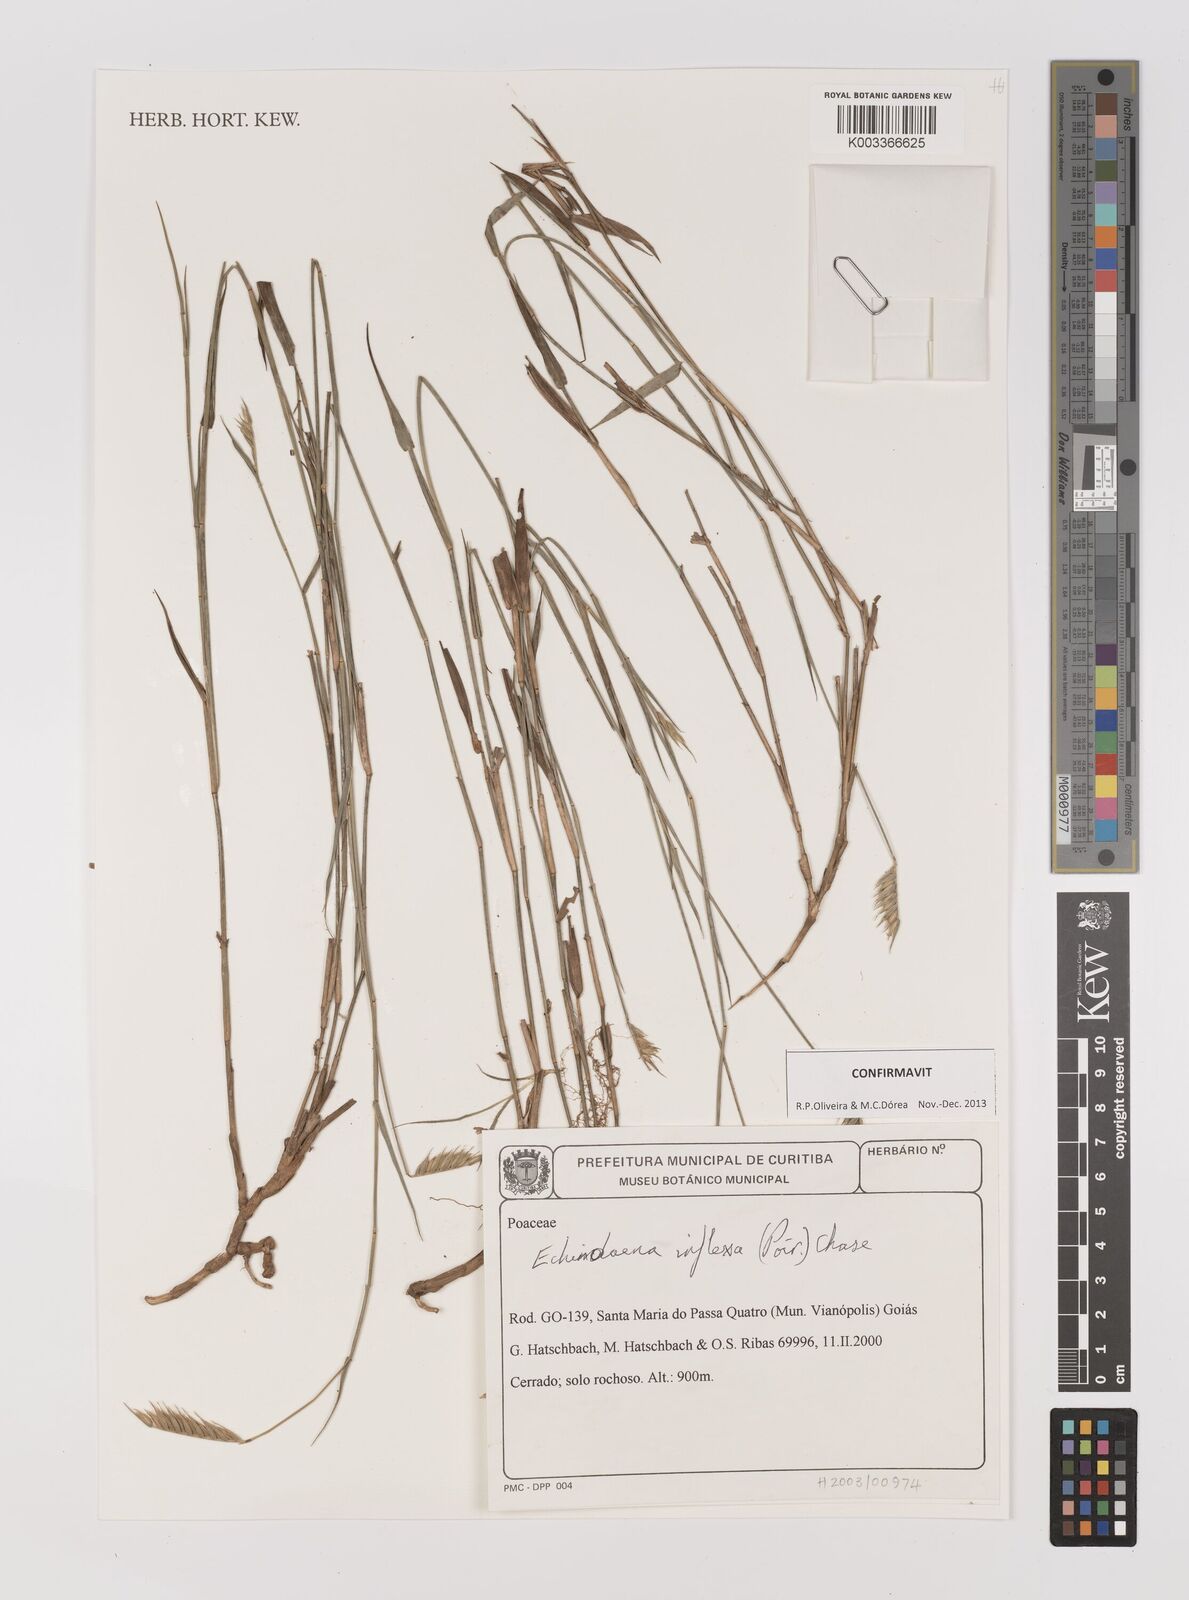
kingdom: Plantae
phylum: Tracheophyta
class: Liliopsida
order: Poales
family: Poaceae
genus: Echinolaena
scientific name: Echinolaena inflexa
